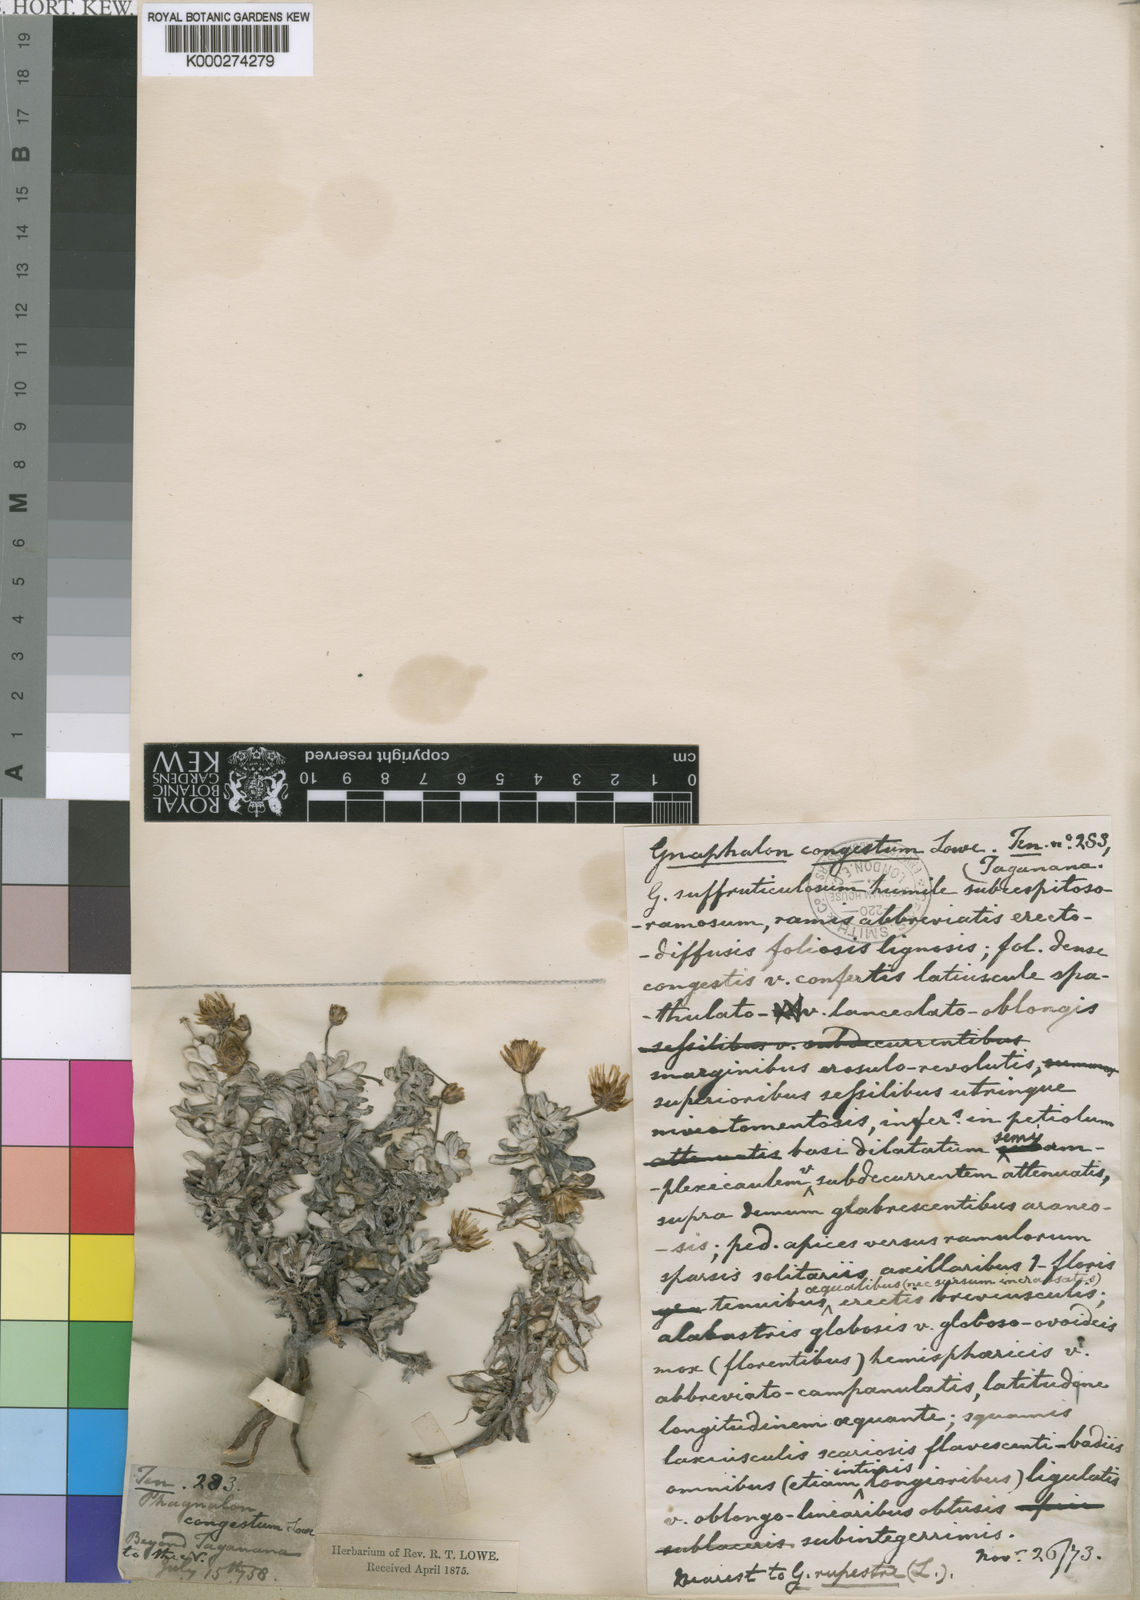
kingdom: Plantae
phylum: Tracheophyta
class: Magnoliopsida
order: Asterales
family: Asteraceae
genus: Phagnalon
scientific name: Phagnalon
